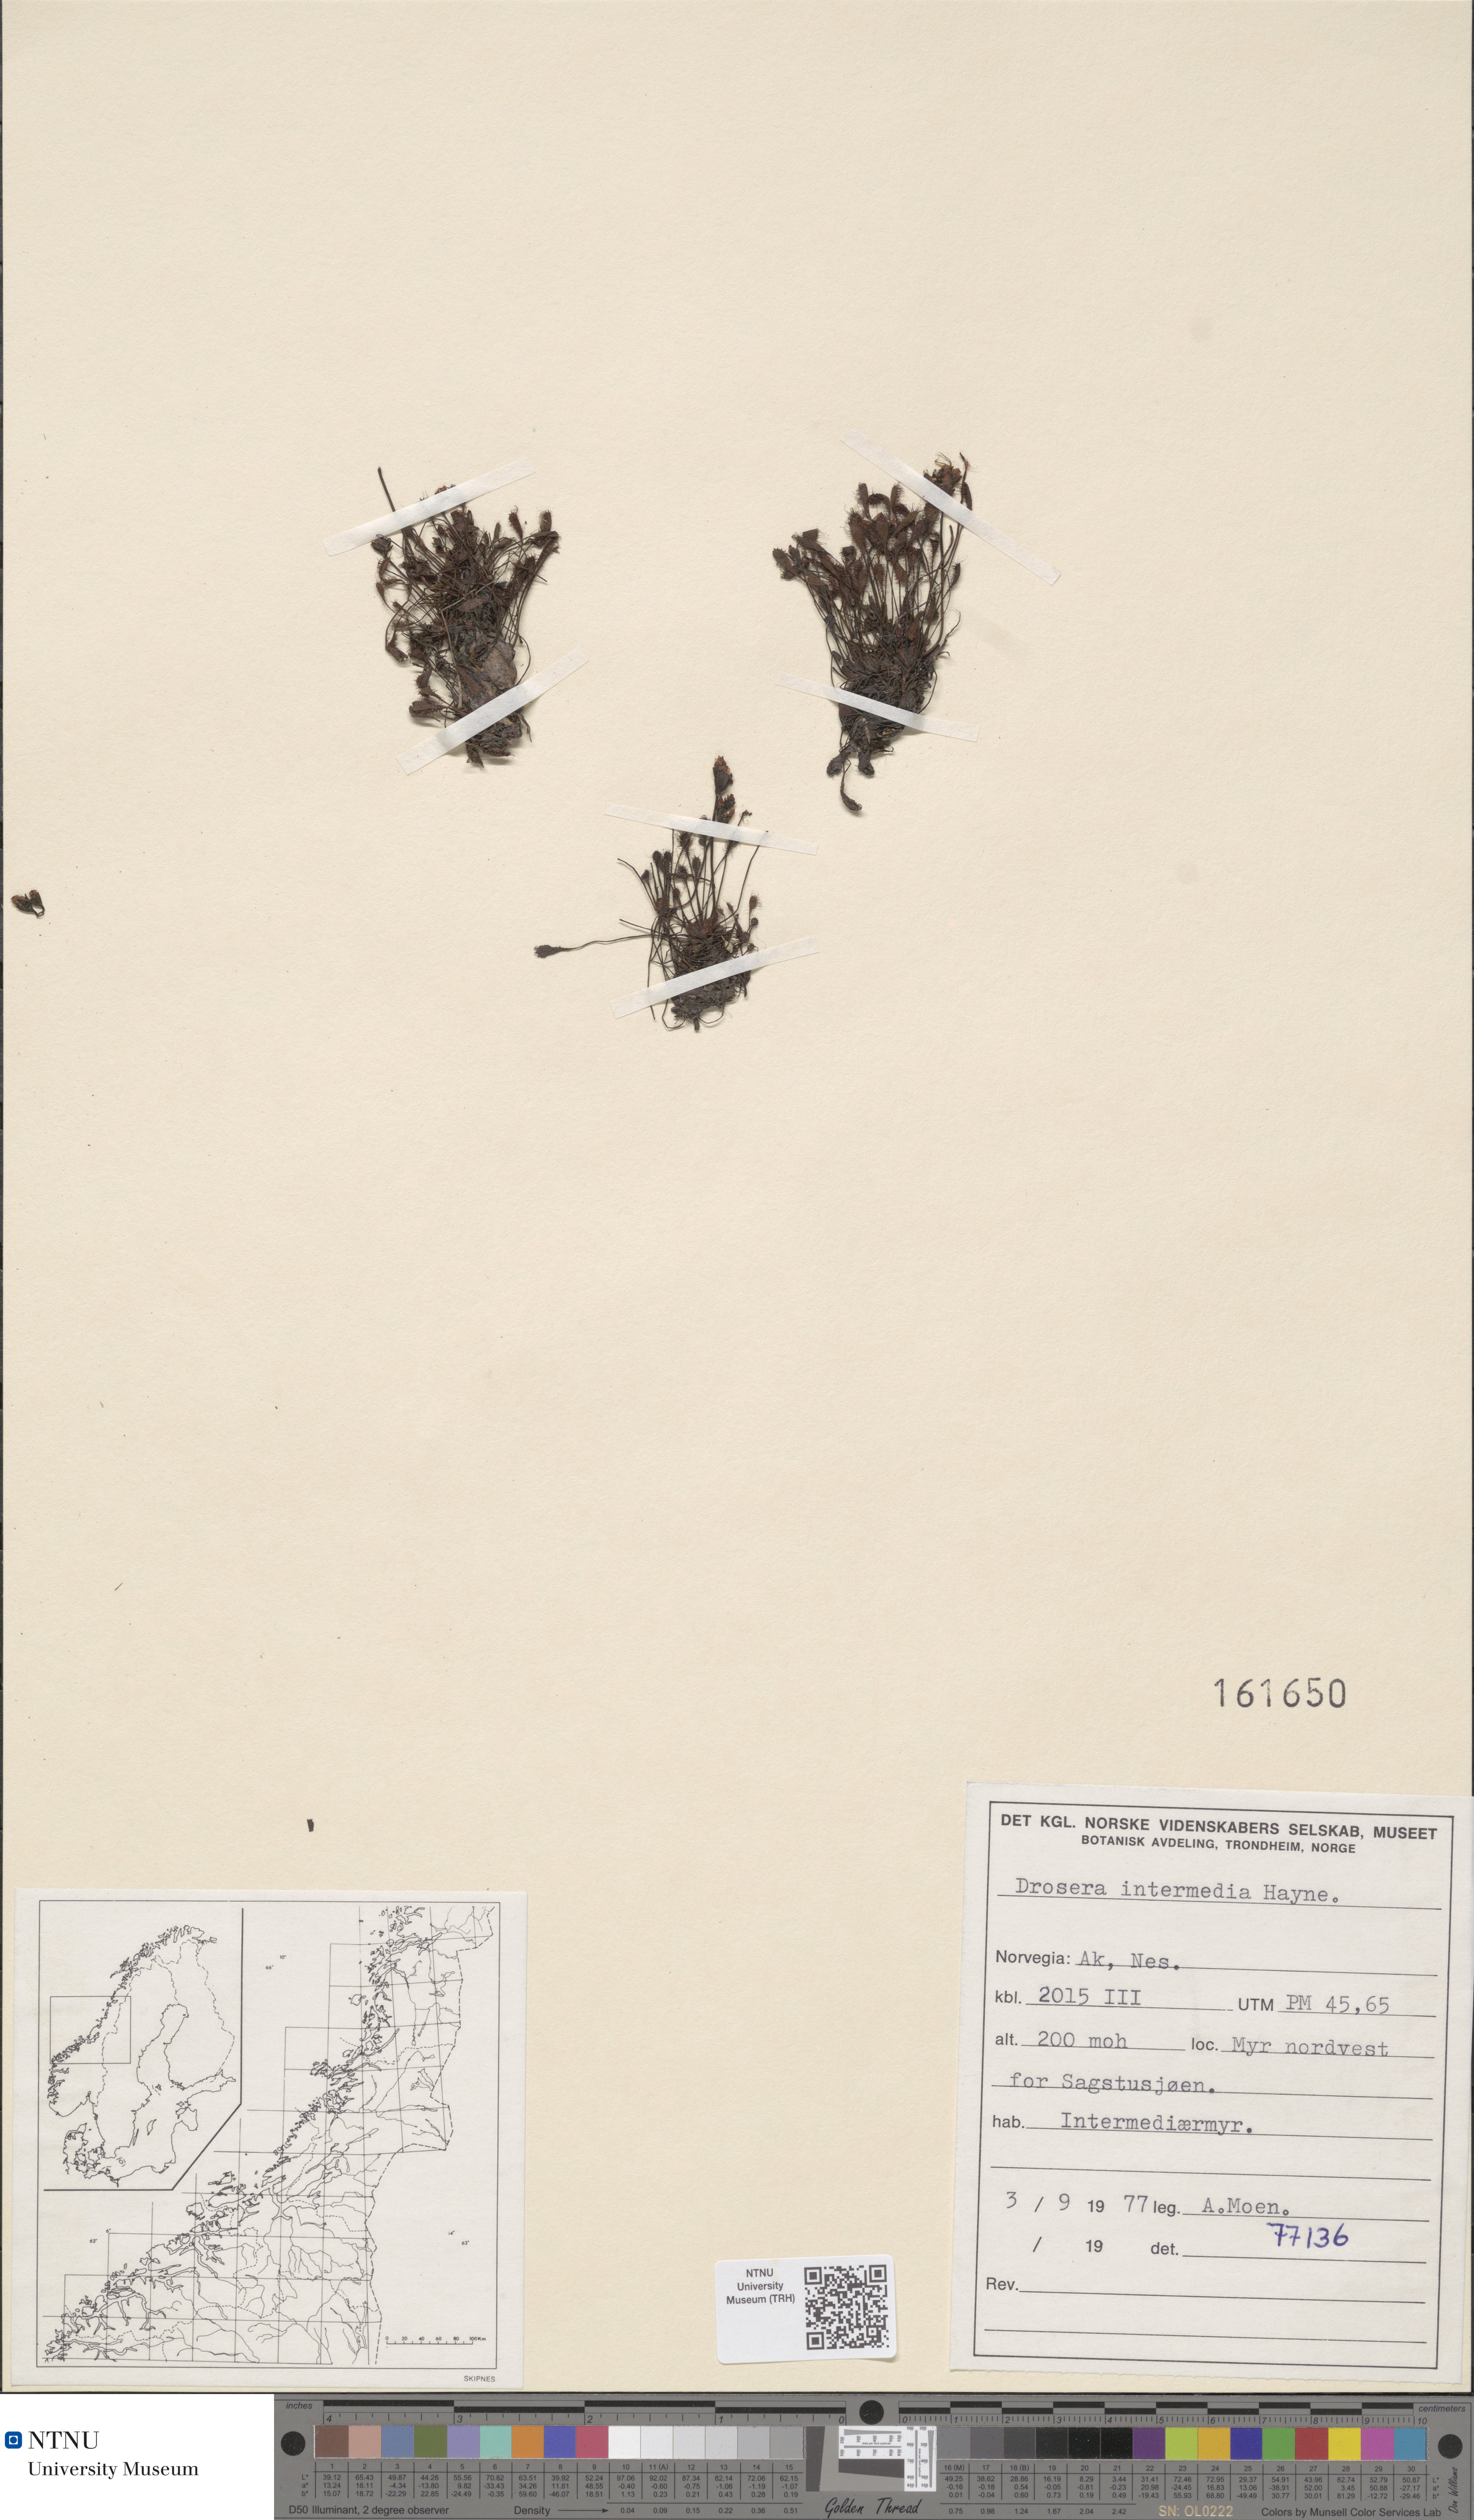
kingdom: Plantae
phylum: Tracheophyta
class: Magnoliopsida
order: Caryophyllales
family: Droseraceae
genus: Drosera
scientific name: Drosera intermedia
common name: Oblong-leaved sundew
